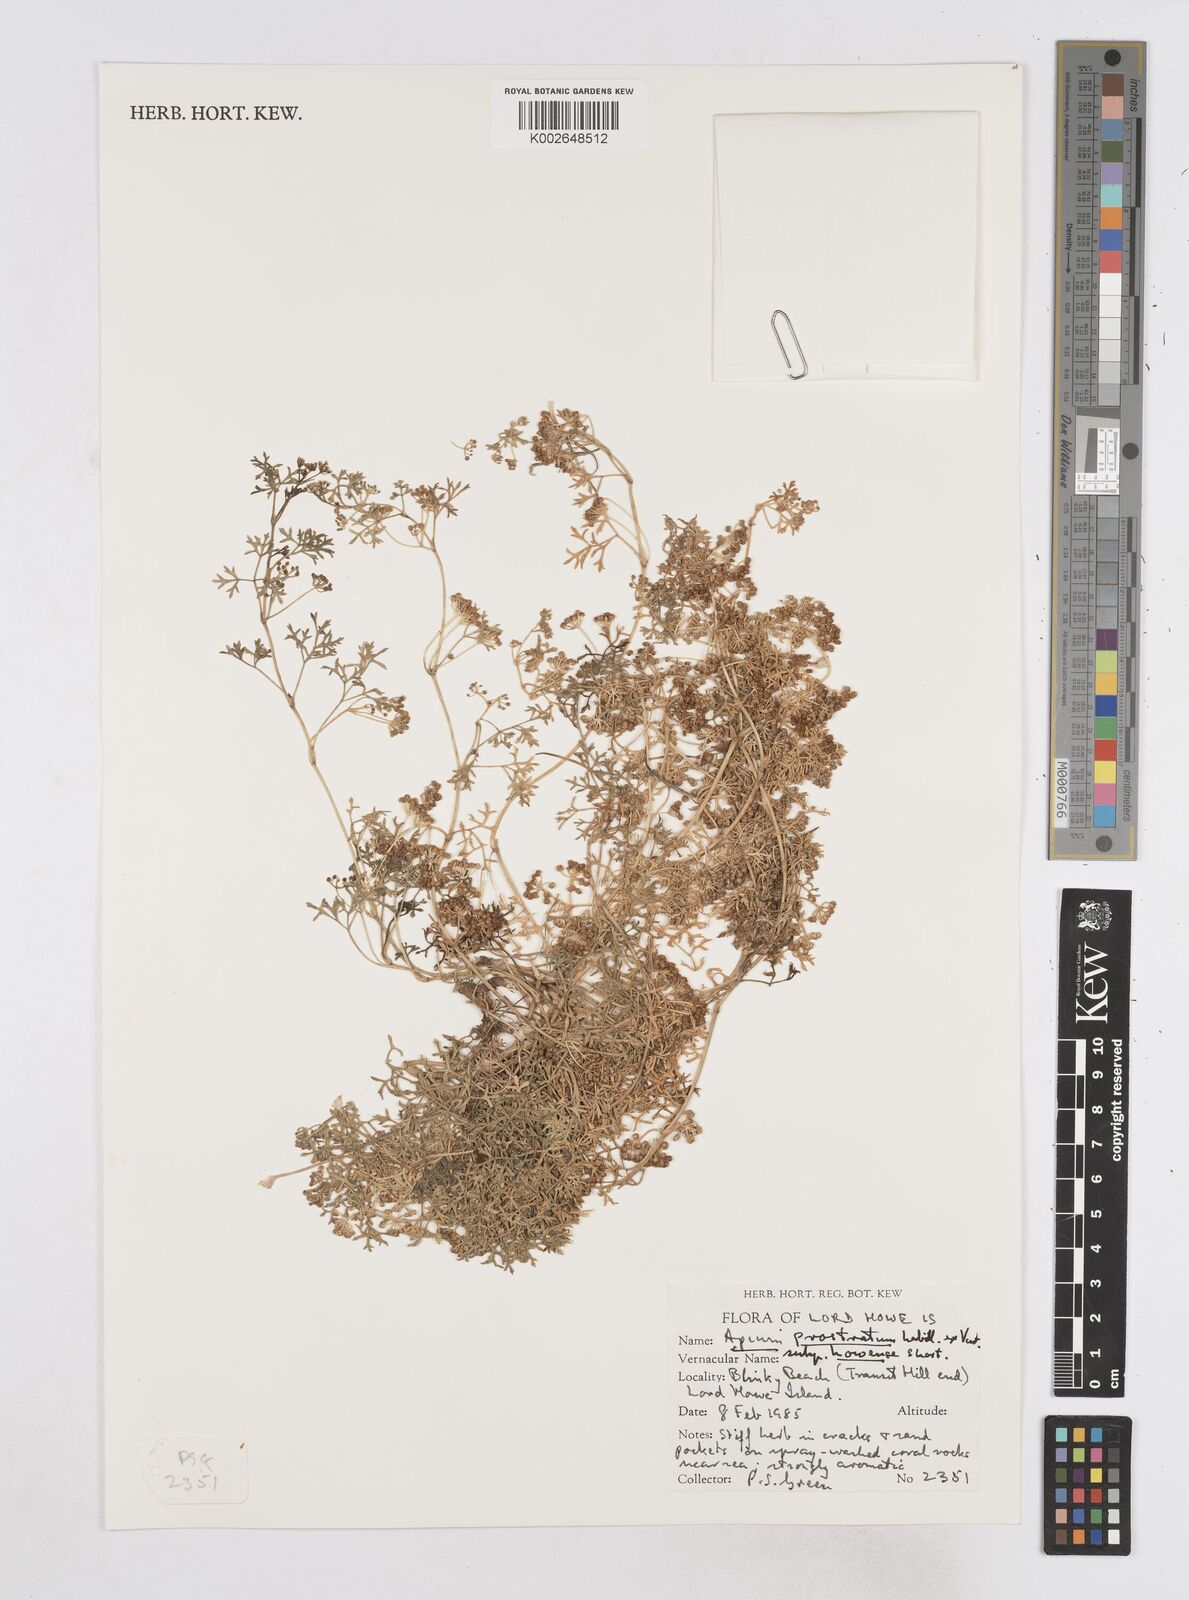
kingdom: Plantae
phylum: Tracheophyta
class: Magnoliopsida
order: Apiales
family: Apiaceae
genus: Apium
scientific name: Apium prostratum
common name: Prostrate marshwort
